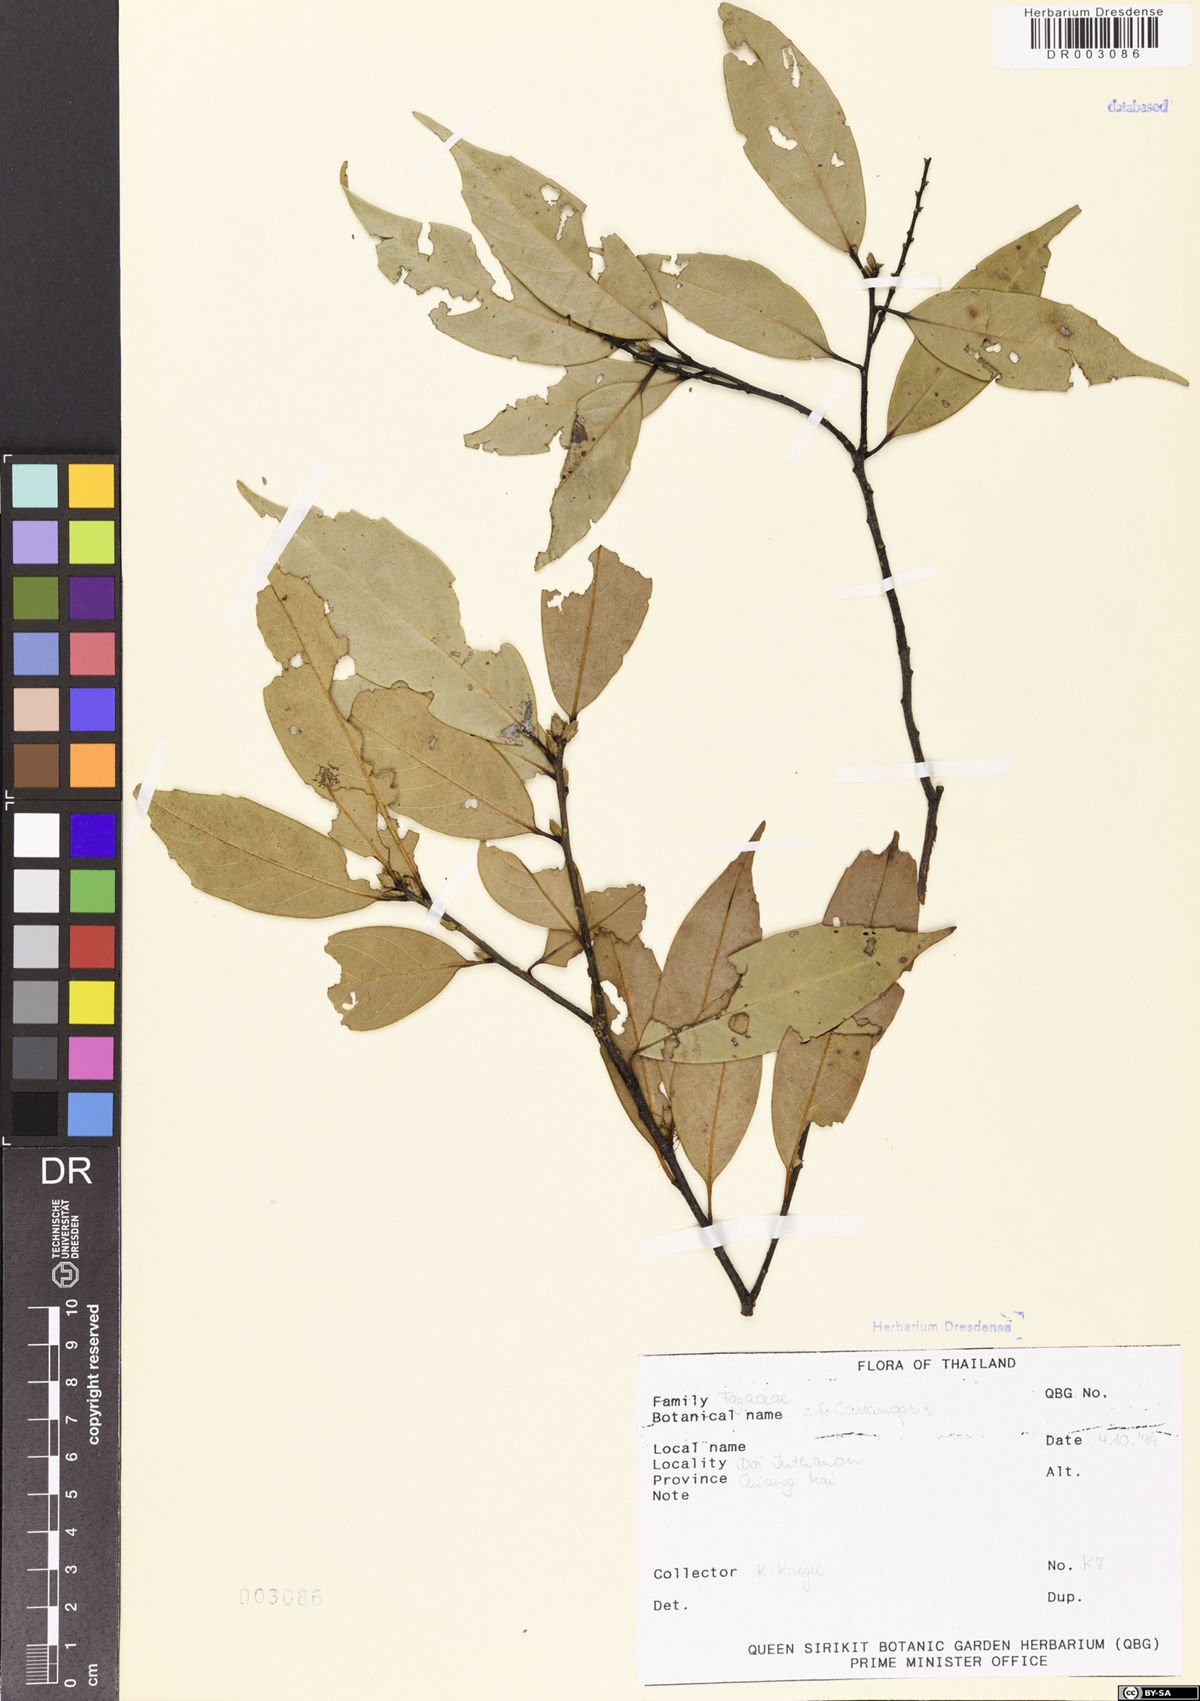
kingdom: Plantae
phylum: Tracheophyta
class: Magnoliopsida
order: Fagales
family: Fagaceae
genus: Castanopsis
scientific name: Castanopsis
